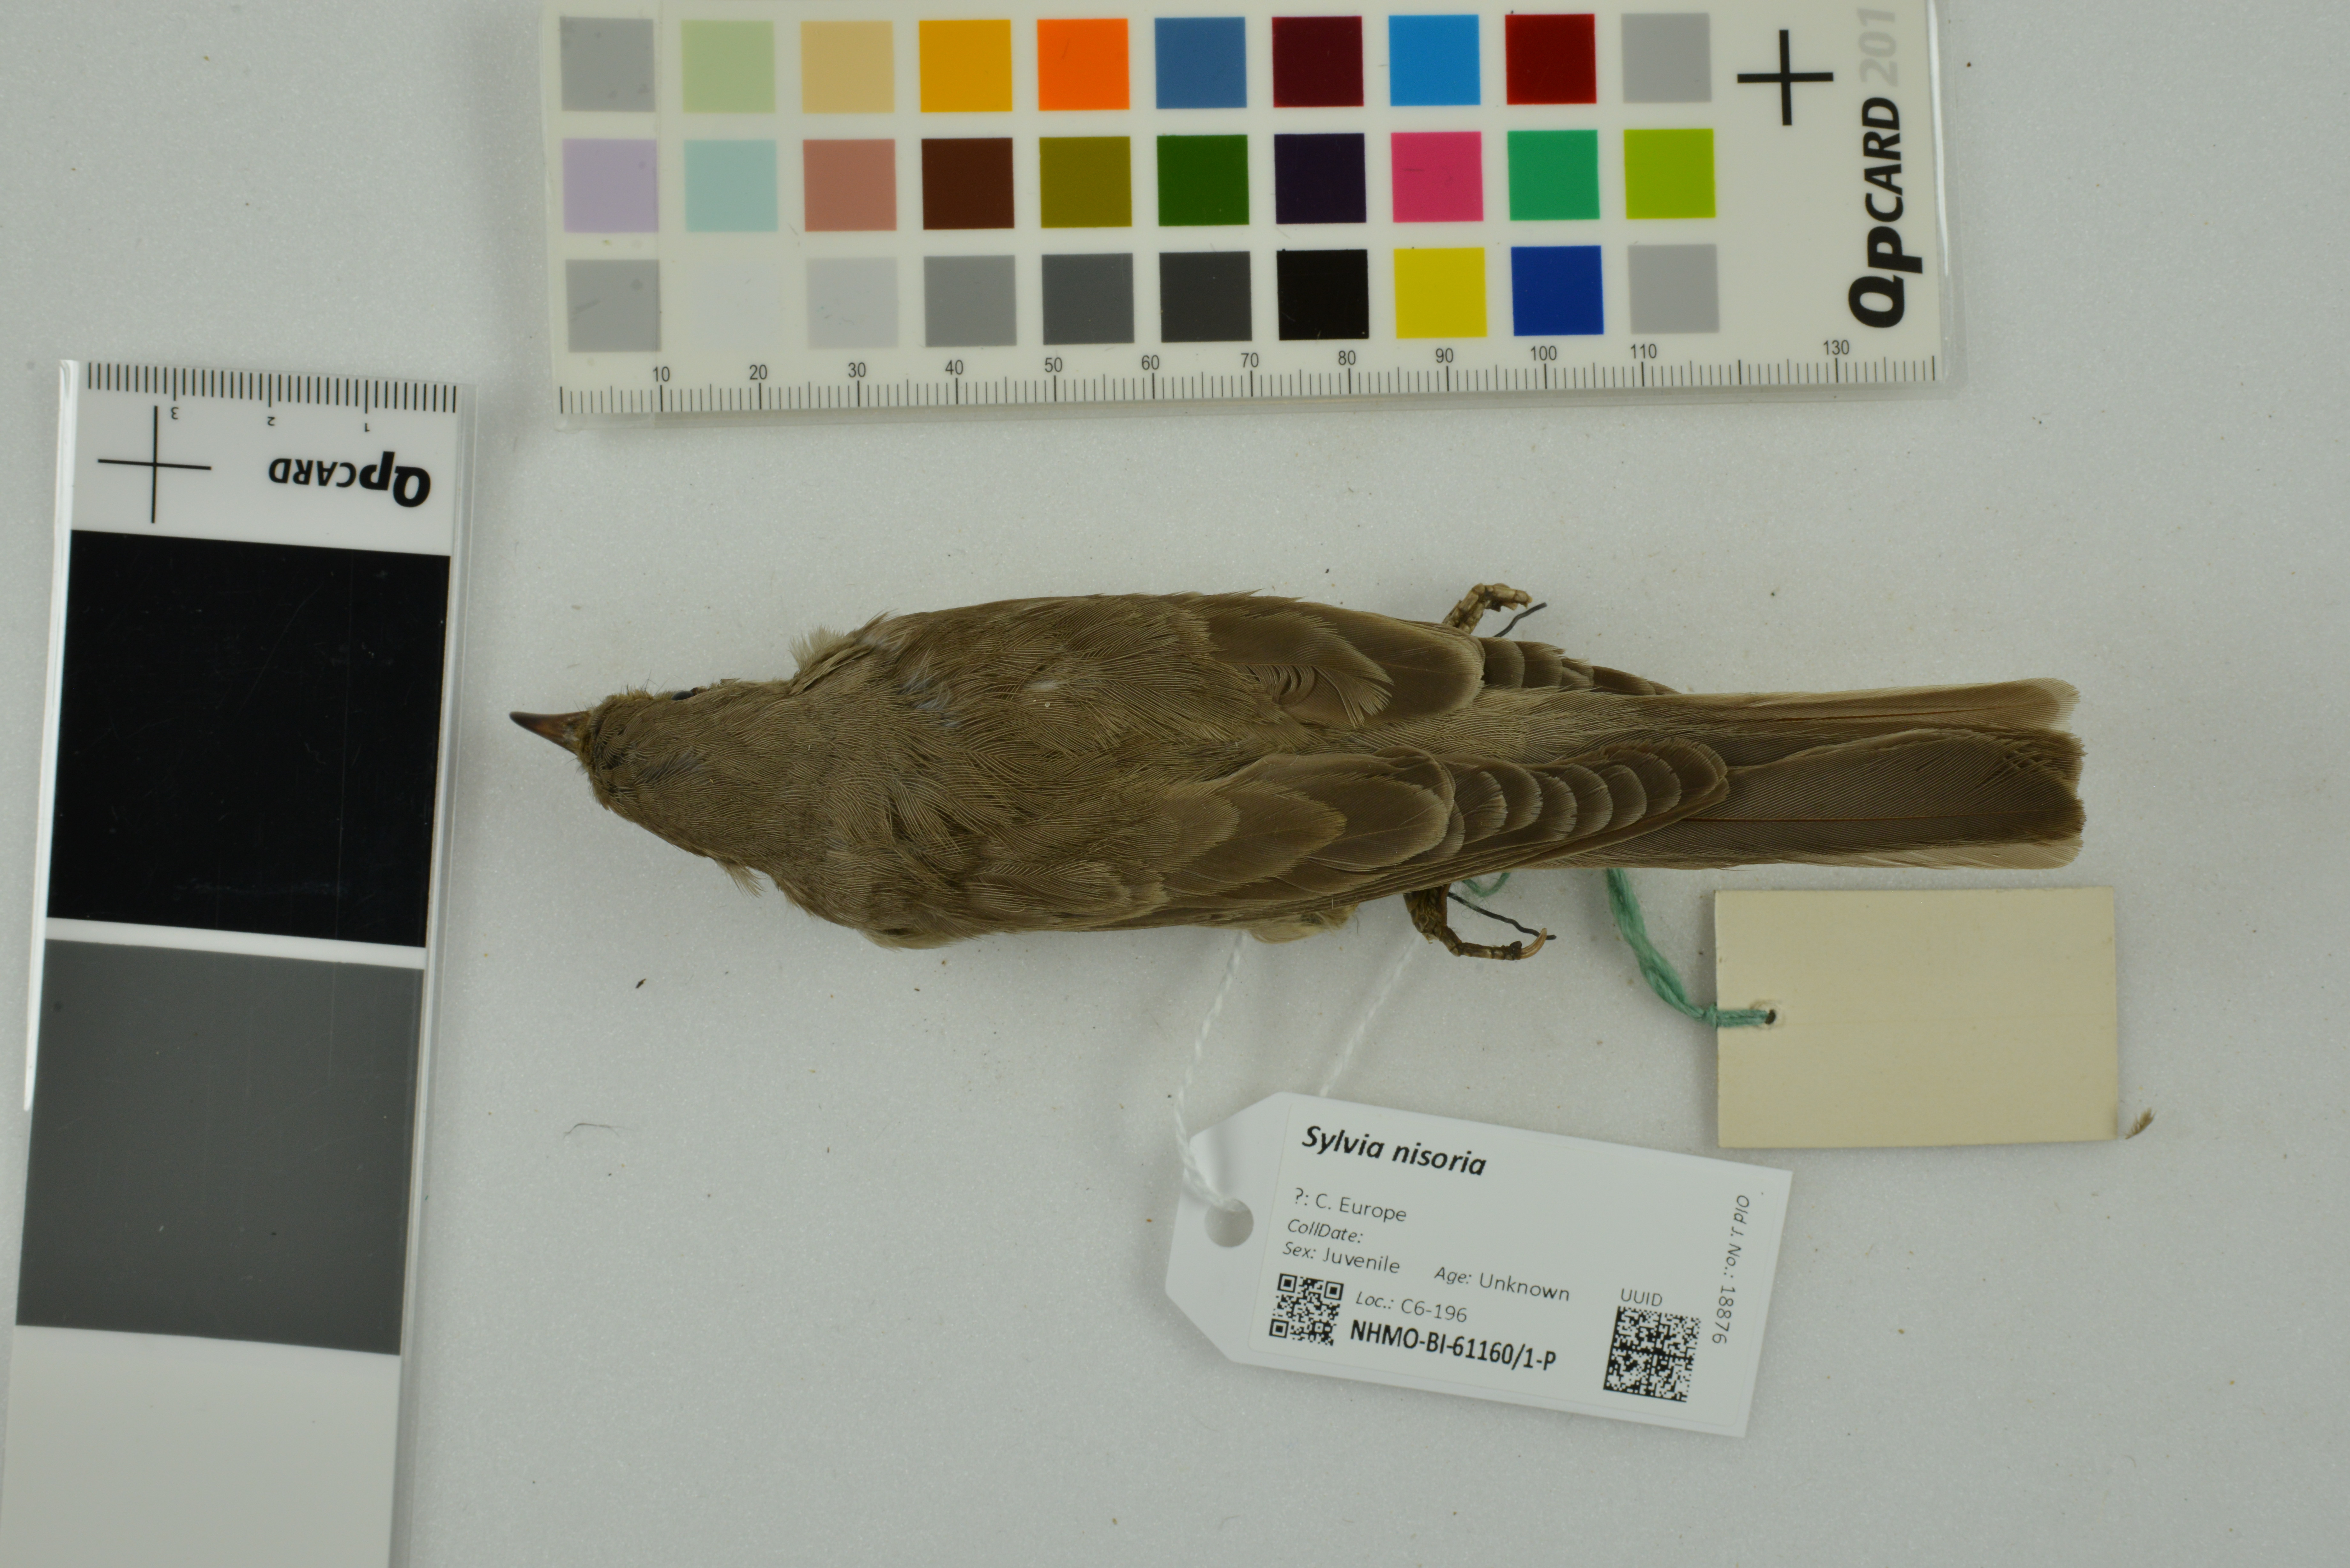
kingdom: Animalia
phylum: Chordata
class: Aves
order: Passeriformes
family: Sylviidae
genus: Sylvia
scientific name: Sylvia nisoria
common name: Barred warbler
